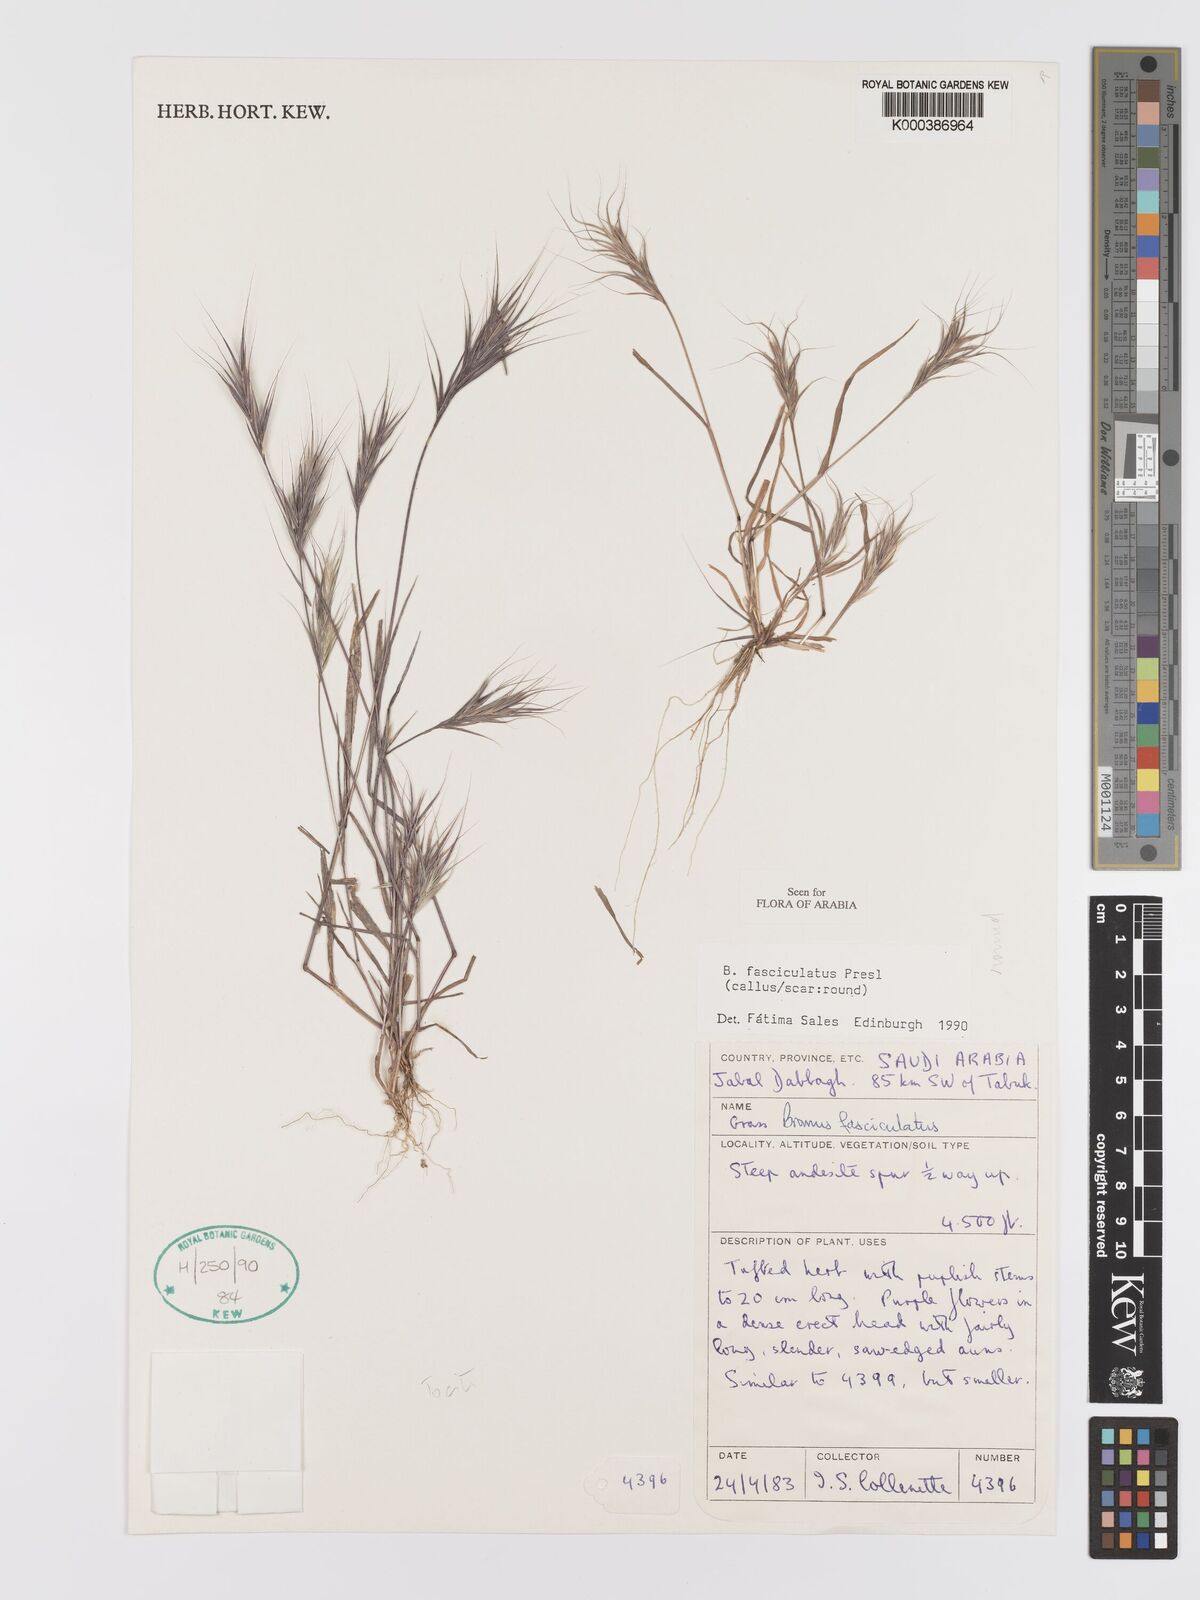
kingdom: Plantae
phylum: Tracheophyta
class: Liliopsida
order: Poales
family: Poaceae
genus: Bromus
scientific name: Bromus fasciculatus
